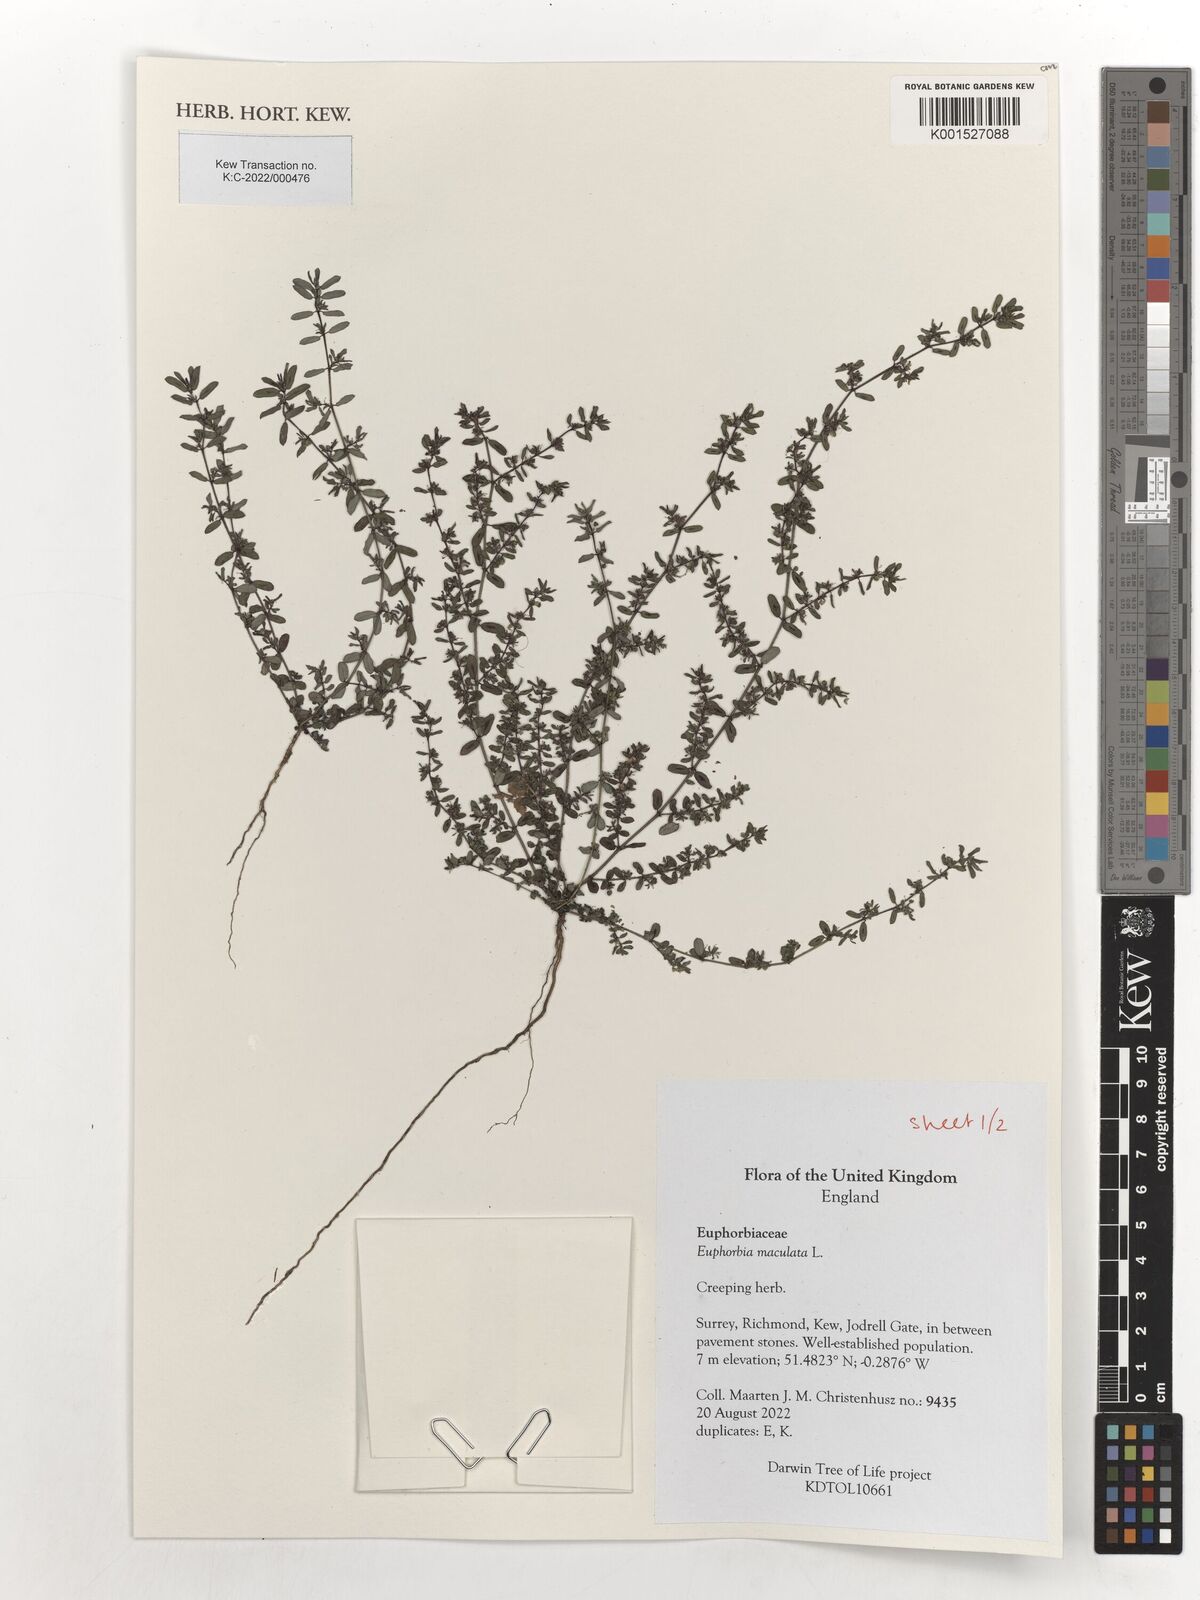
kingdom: Plantae
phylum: Tracheophyta
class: Magnoliopsida
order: Malpighiales
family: Euphorbiaceae
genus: Euphorbia
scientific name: Euphorbia maculata
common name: Spotted spurge
